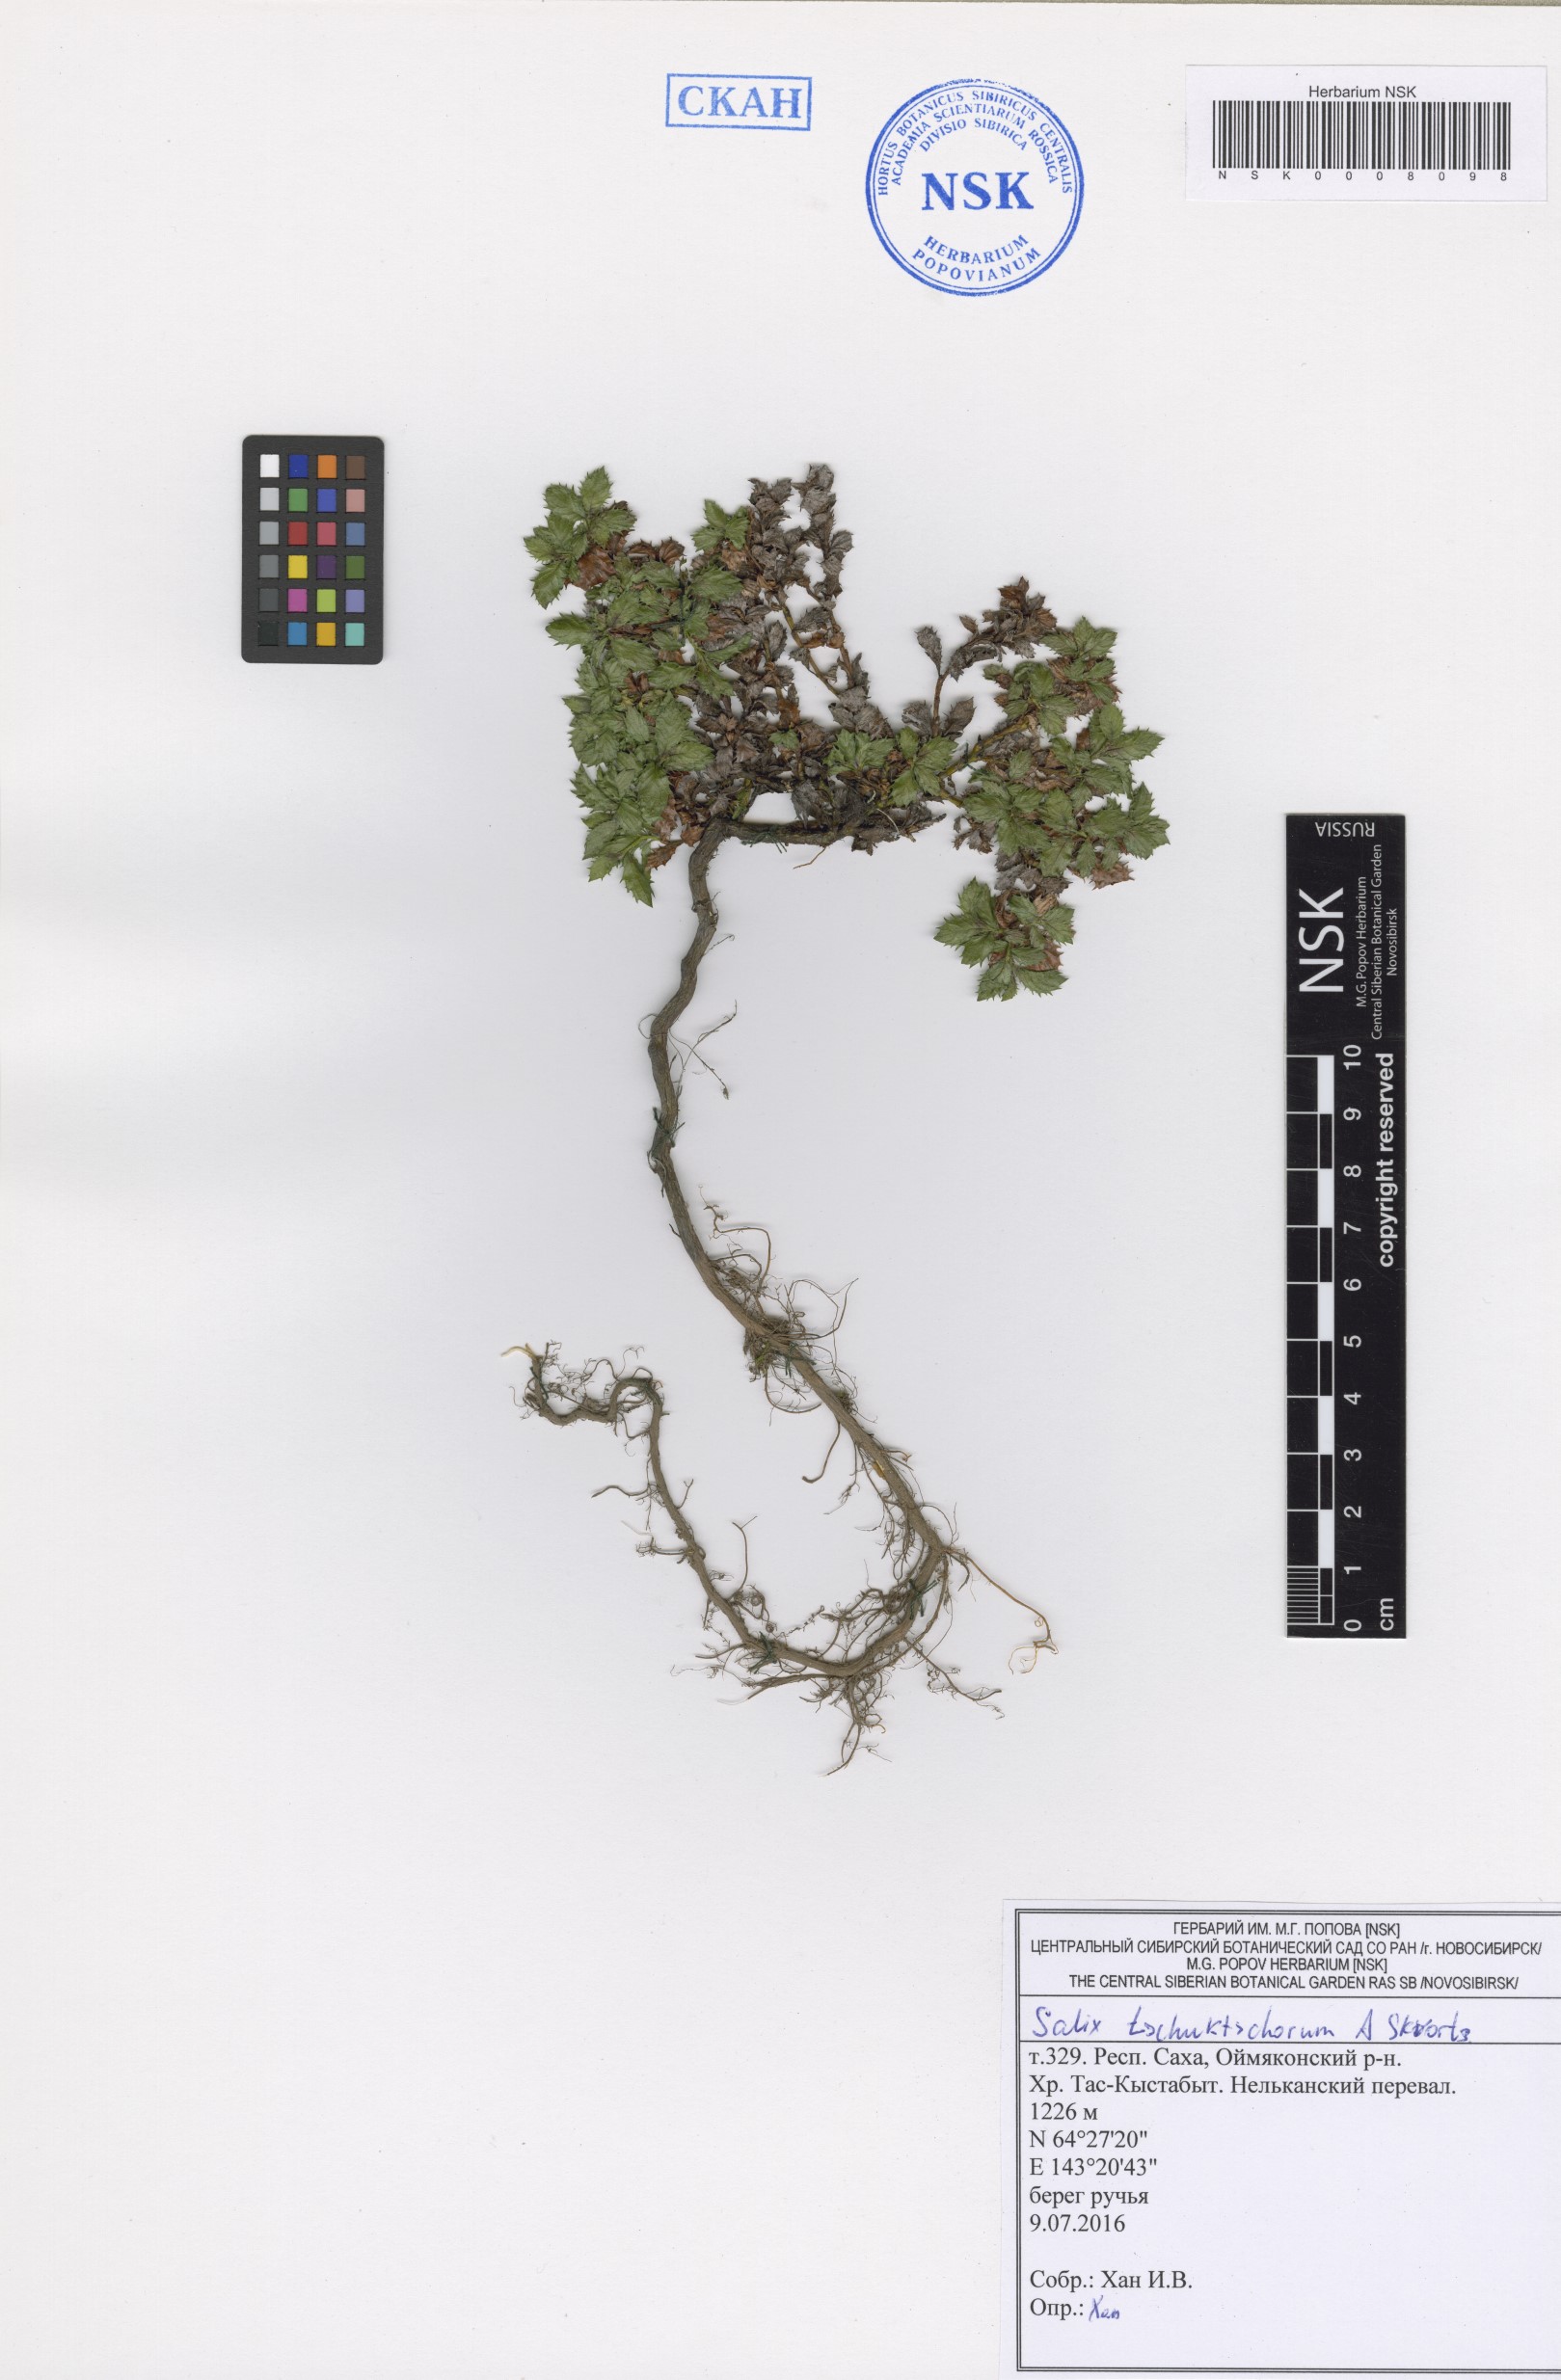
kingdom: Plantae
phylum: Tracheophyta
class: Magnoliopsida
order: Malpighiales
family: Salicaceae
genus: Salix
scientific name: Salix tschuktschorum
